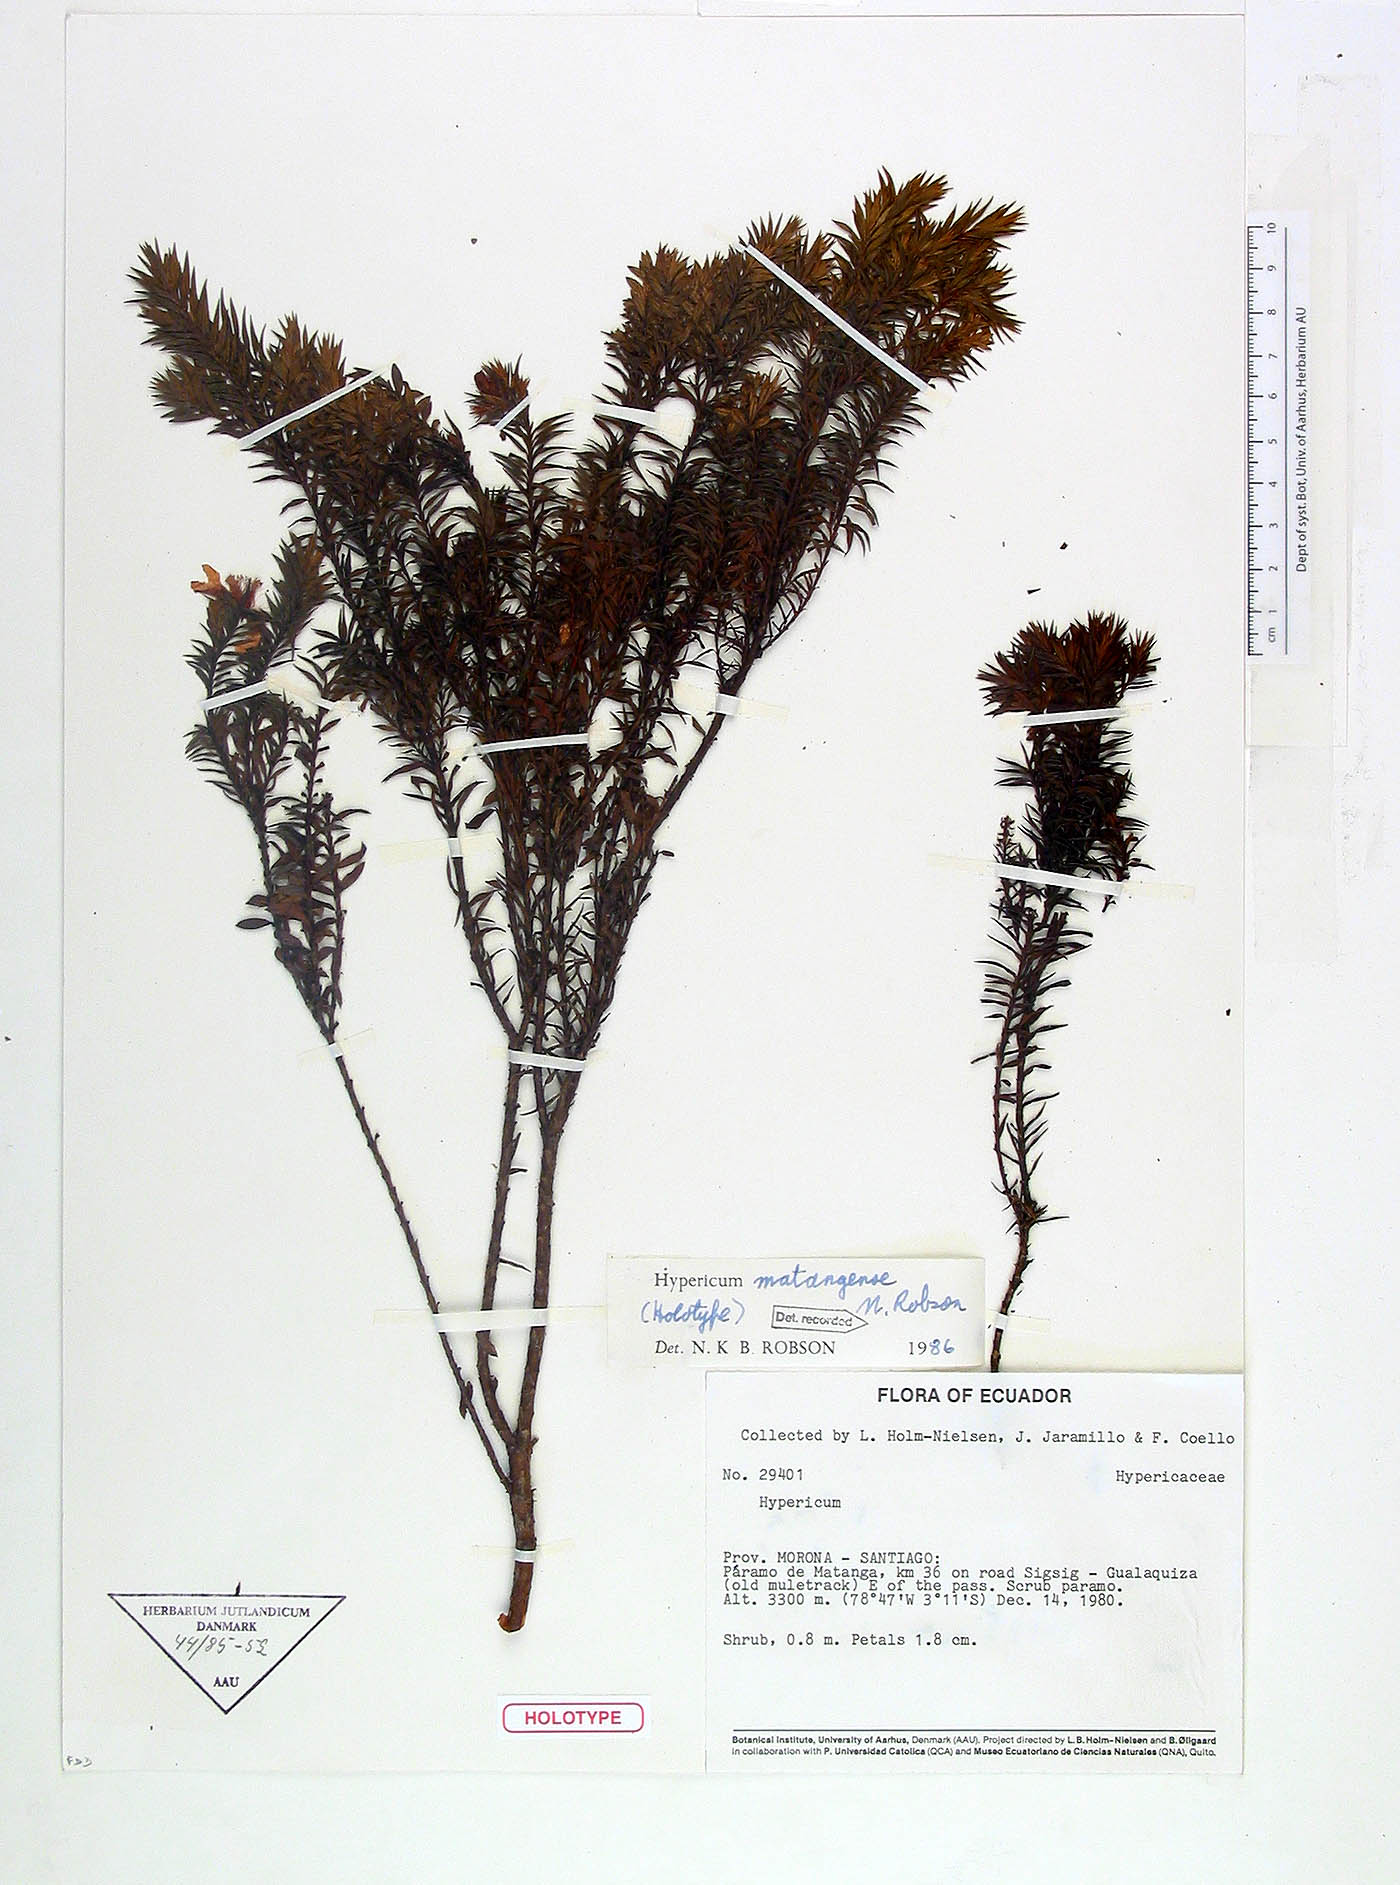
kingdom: Plantae
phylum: Tracheophyta
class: Magnoliopsida
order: Malpighiales
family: Hypericaceae
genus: Hypericum
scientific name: Hypericum matangense
